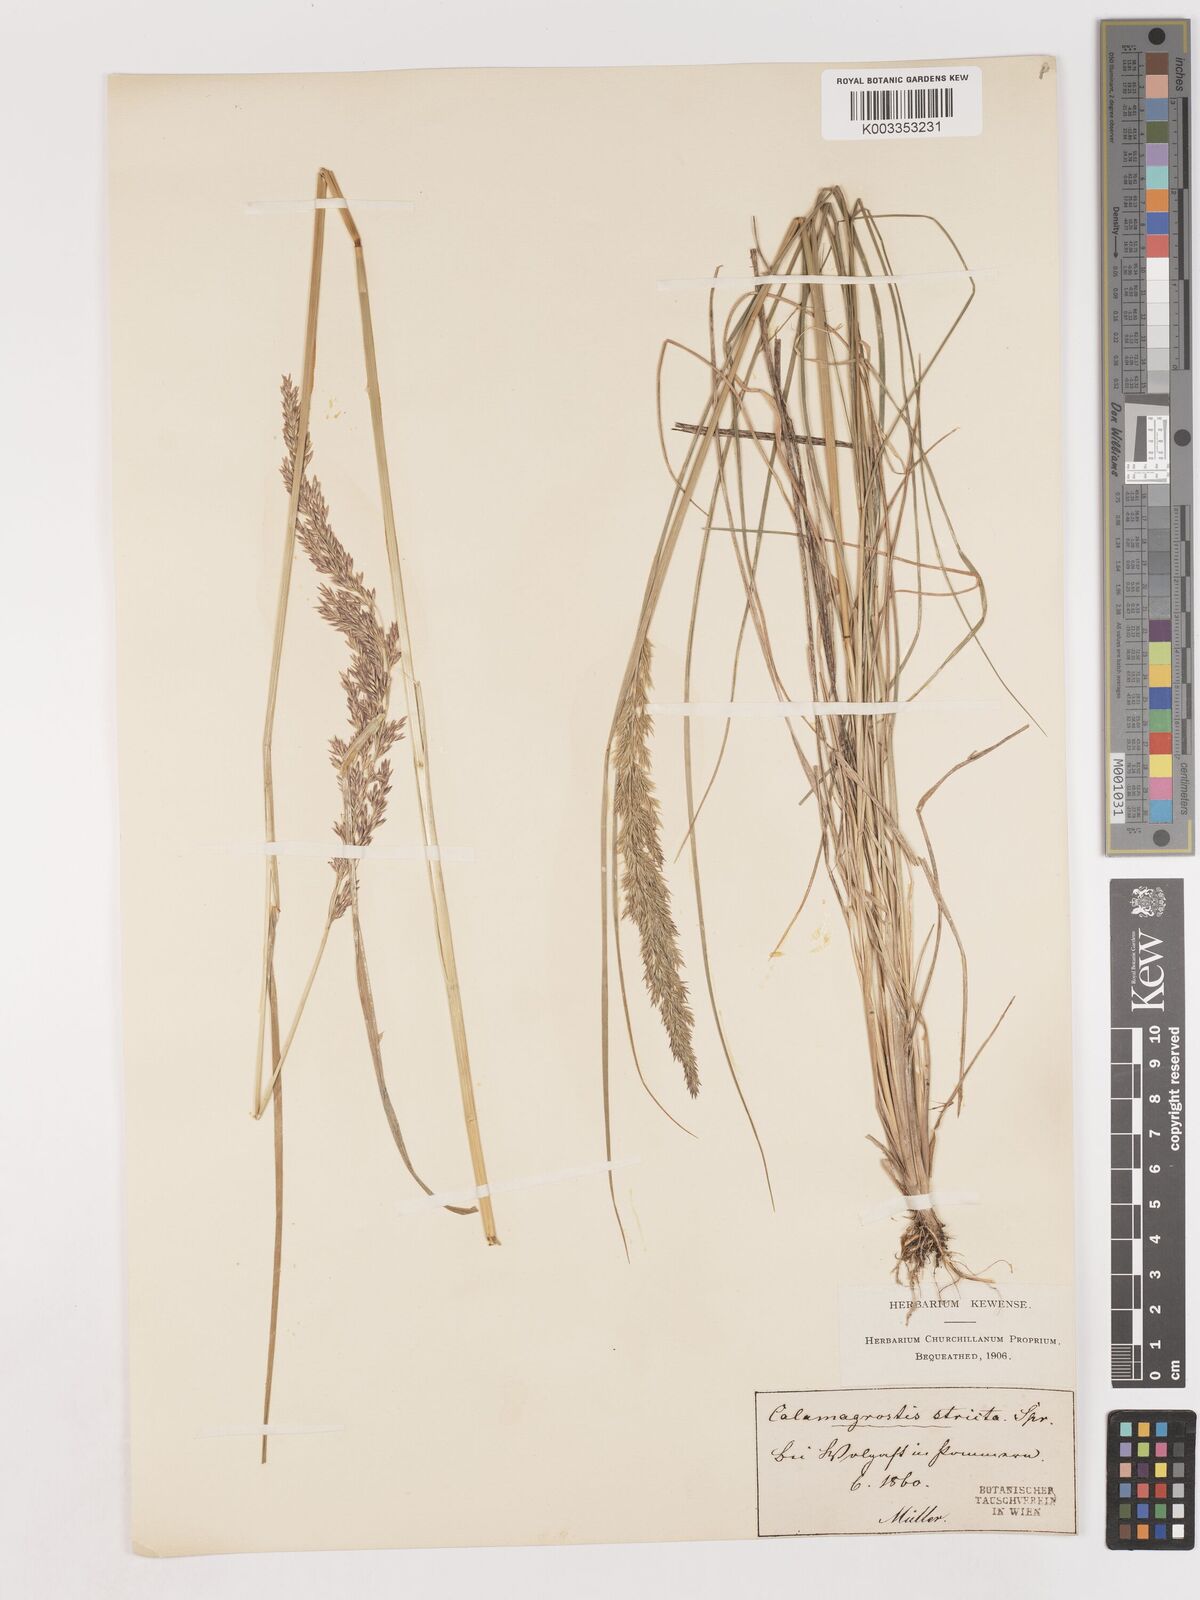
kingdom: Plantae
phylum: Tracheophyta
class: Liliopsida
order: Poales
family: Poaceae
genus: Cinnagrostis
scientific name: Cinnagrostis recta
